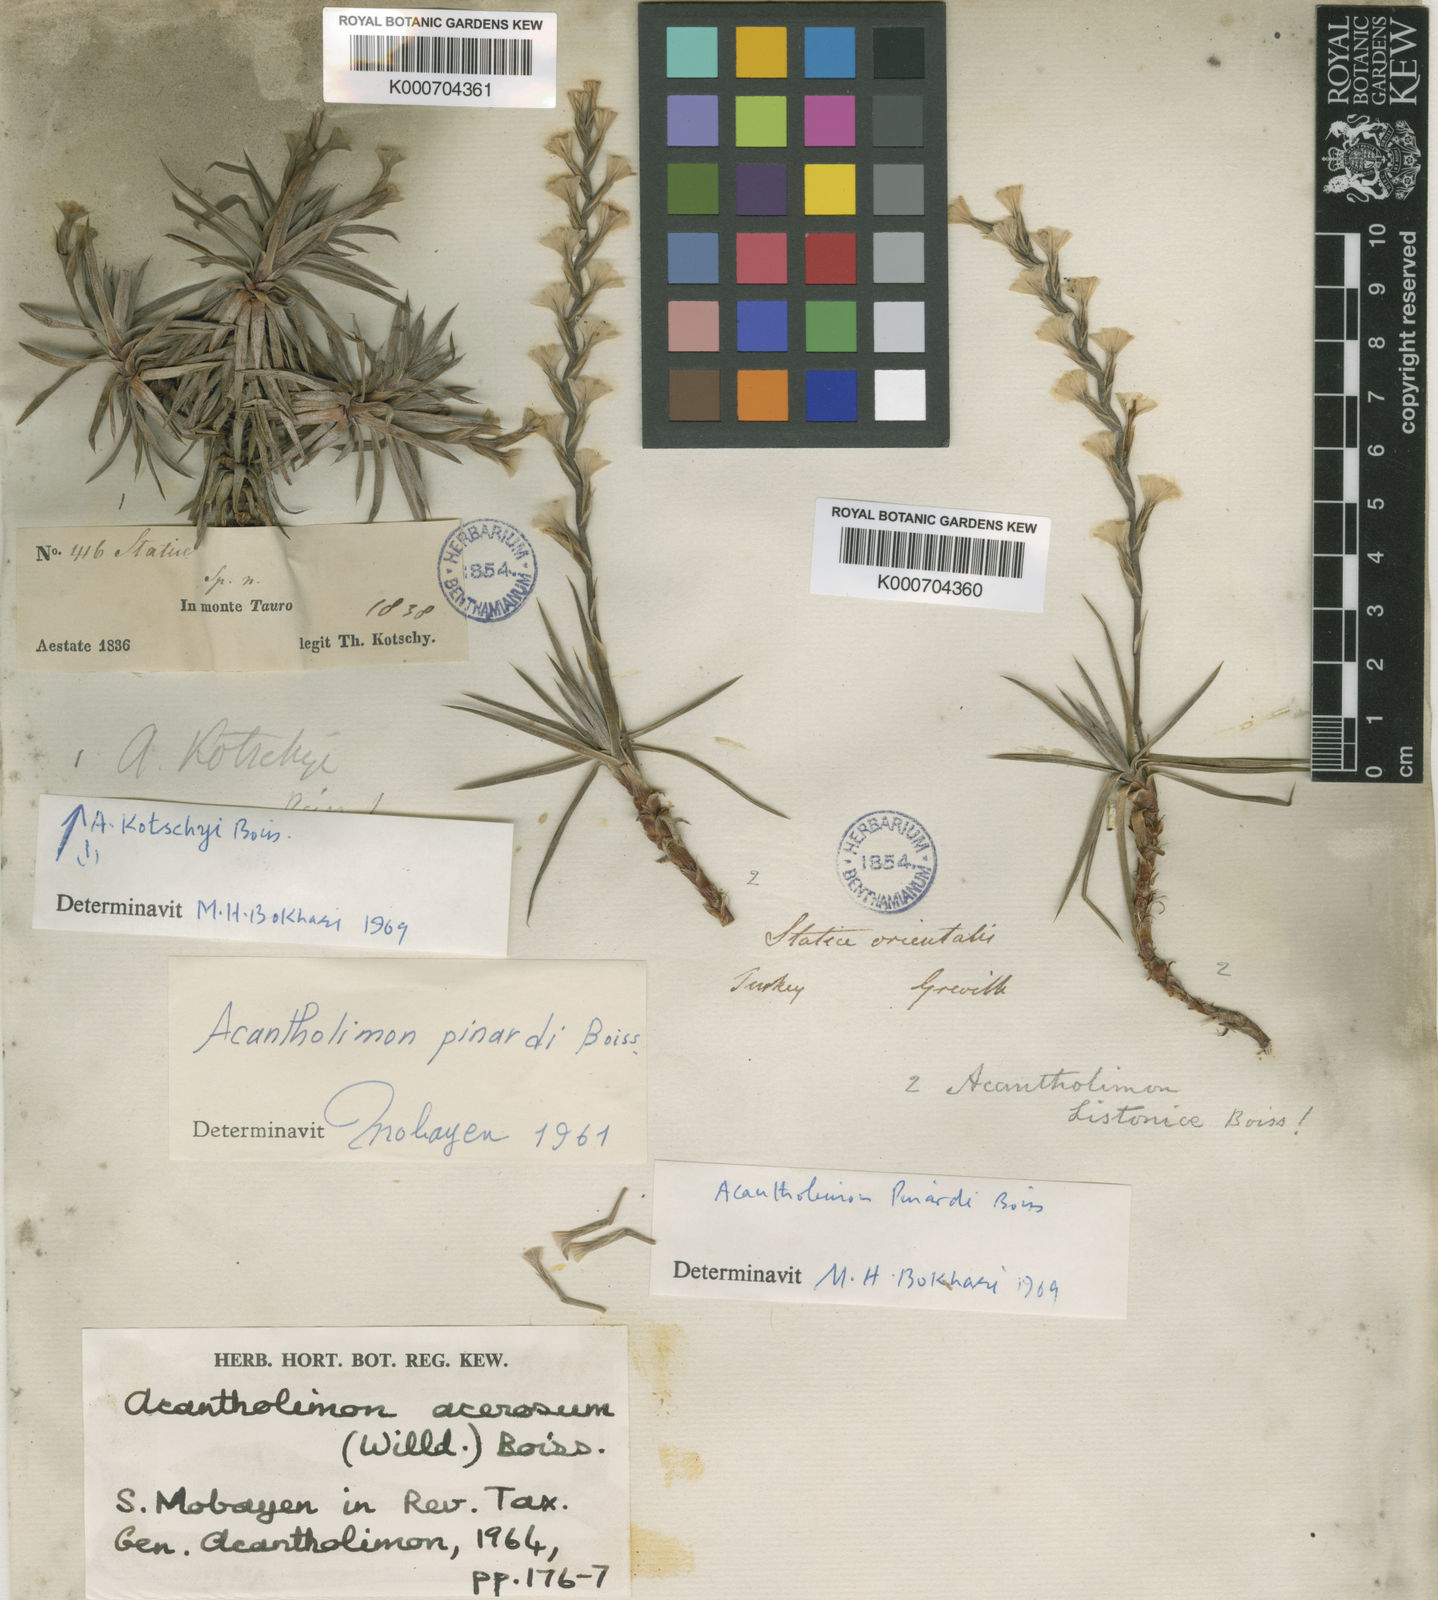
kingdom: Plantae
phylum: Tracheophyta
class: Magnoliopsida
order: Caryophyllales
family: Plumbaginaceae
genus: Acantholimon
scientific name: Acantholimon acerosum
